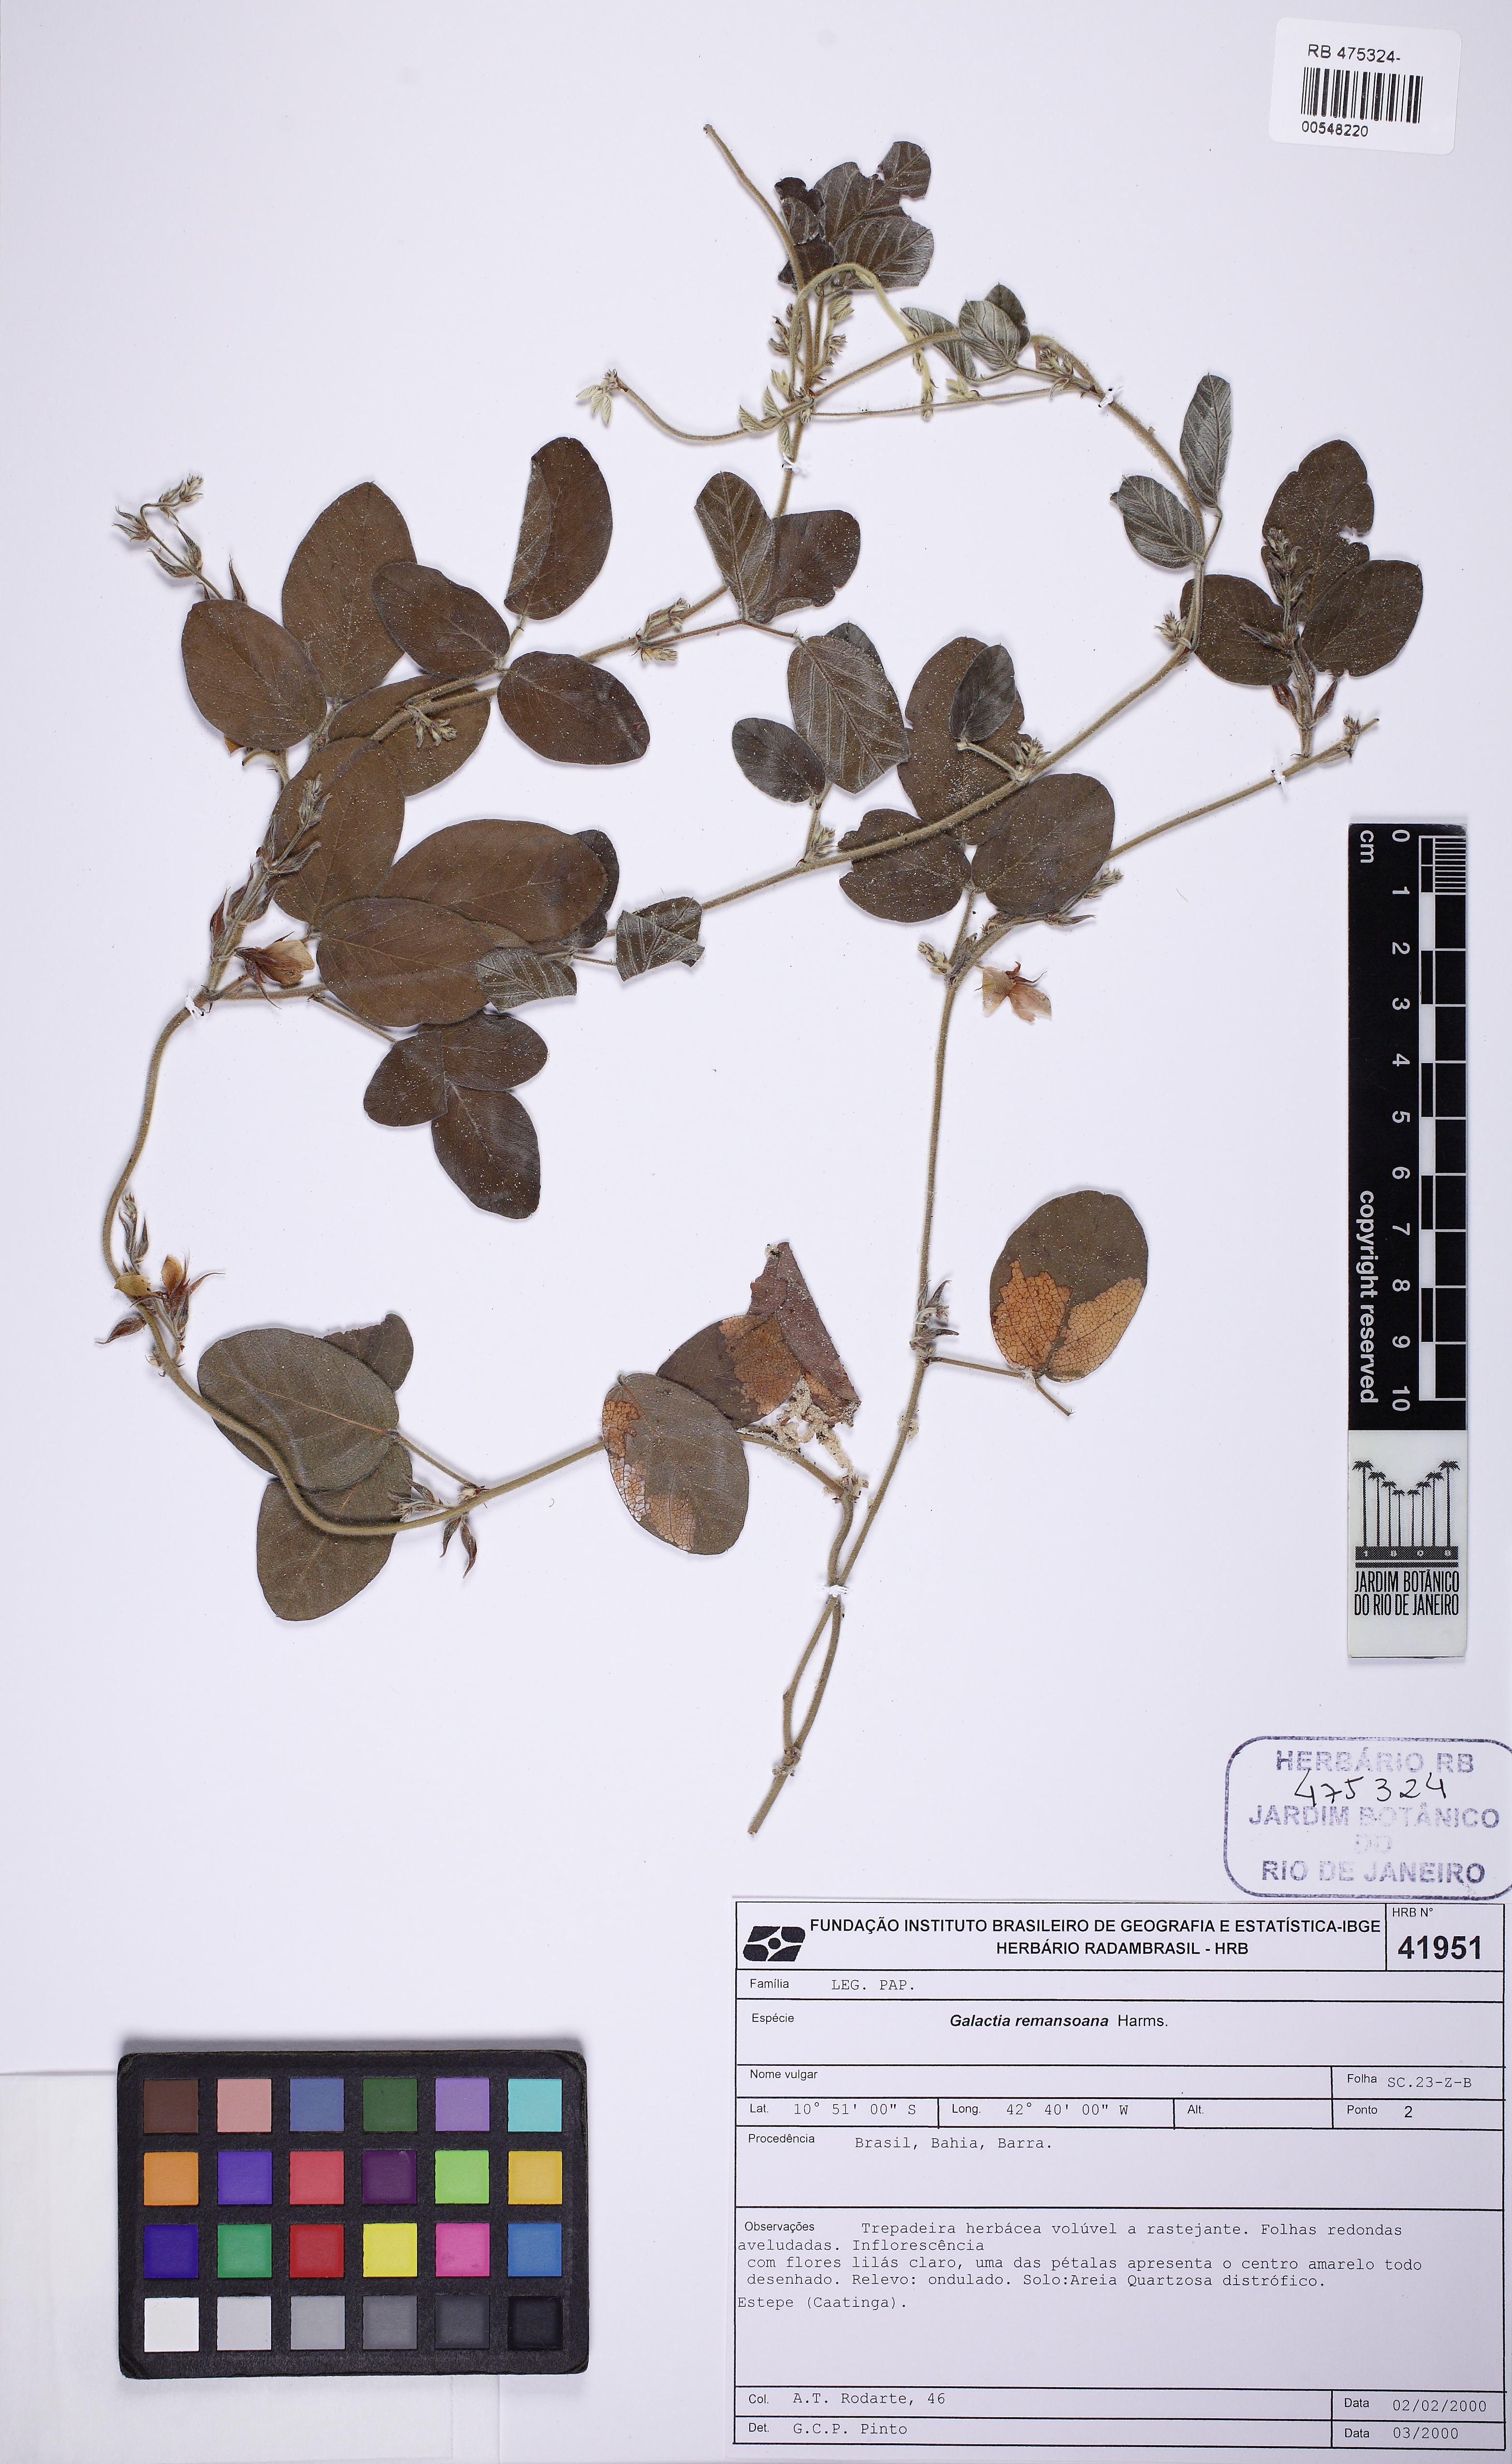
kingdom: Plantae
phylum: Tracheophyta
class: Magnoliopsida
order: Fabales
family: Fabaceae
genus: Galactia
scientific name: Galactia remansoana
